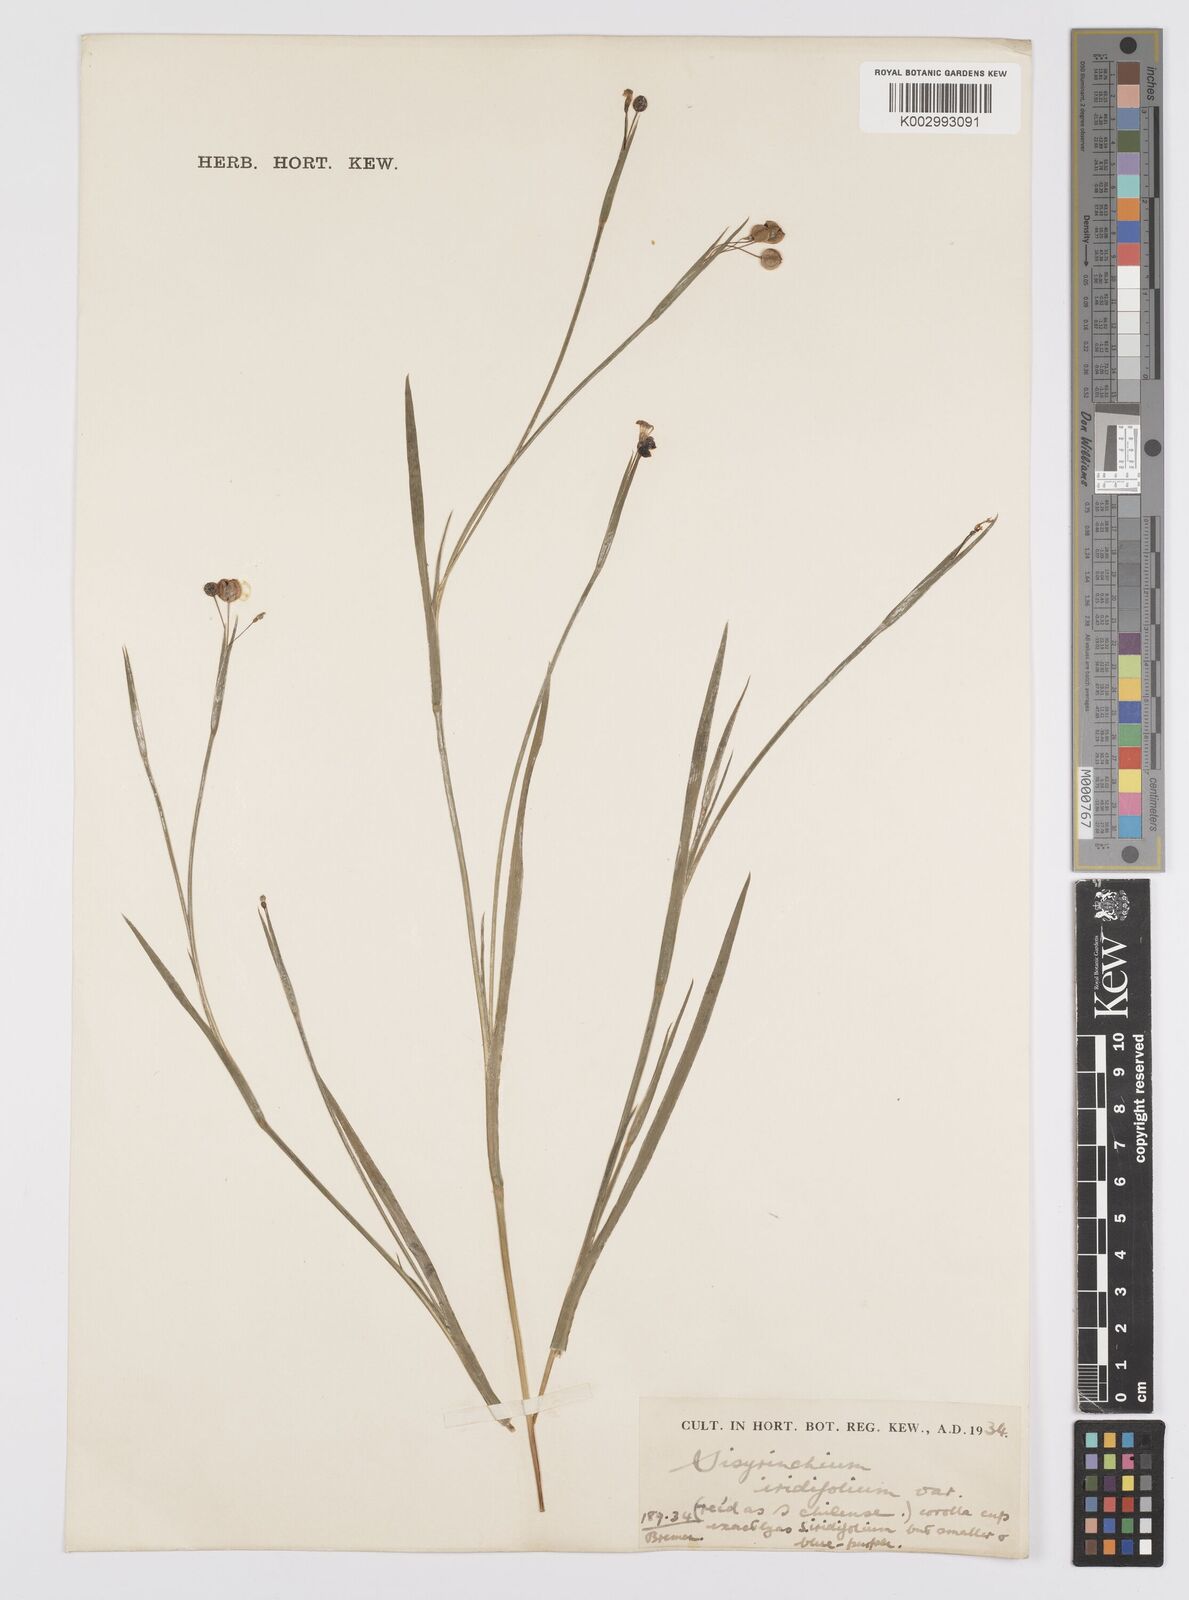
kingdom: Plantae
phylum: Tracheophyta
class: Liliopsida
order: Asparagales
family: Iridaceae
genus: Sisyrinchium
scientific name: Sisyrinchium micranthum
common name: Bermuda pigroot
